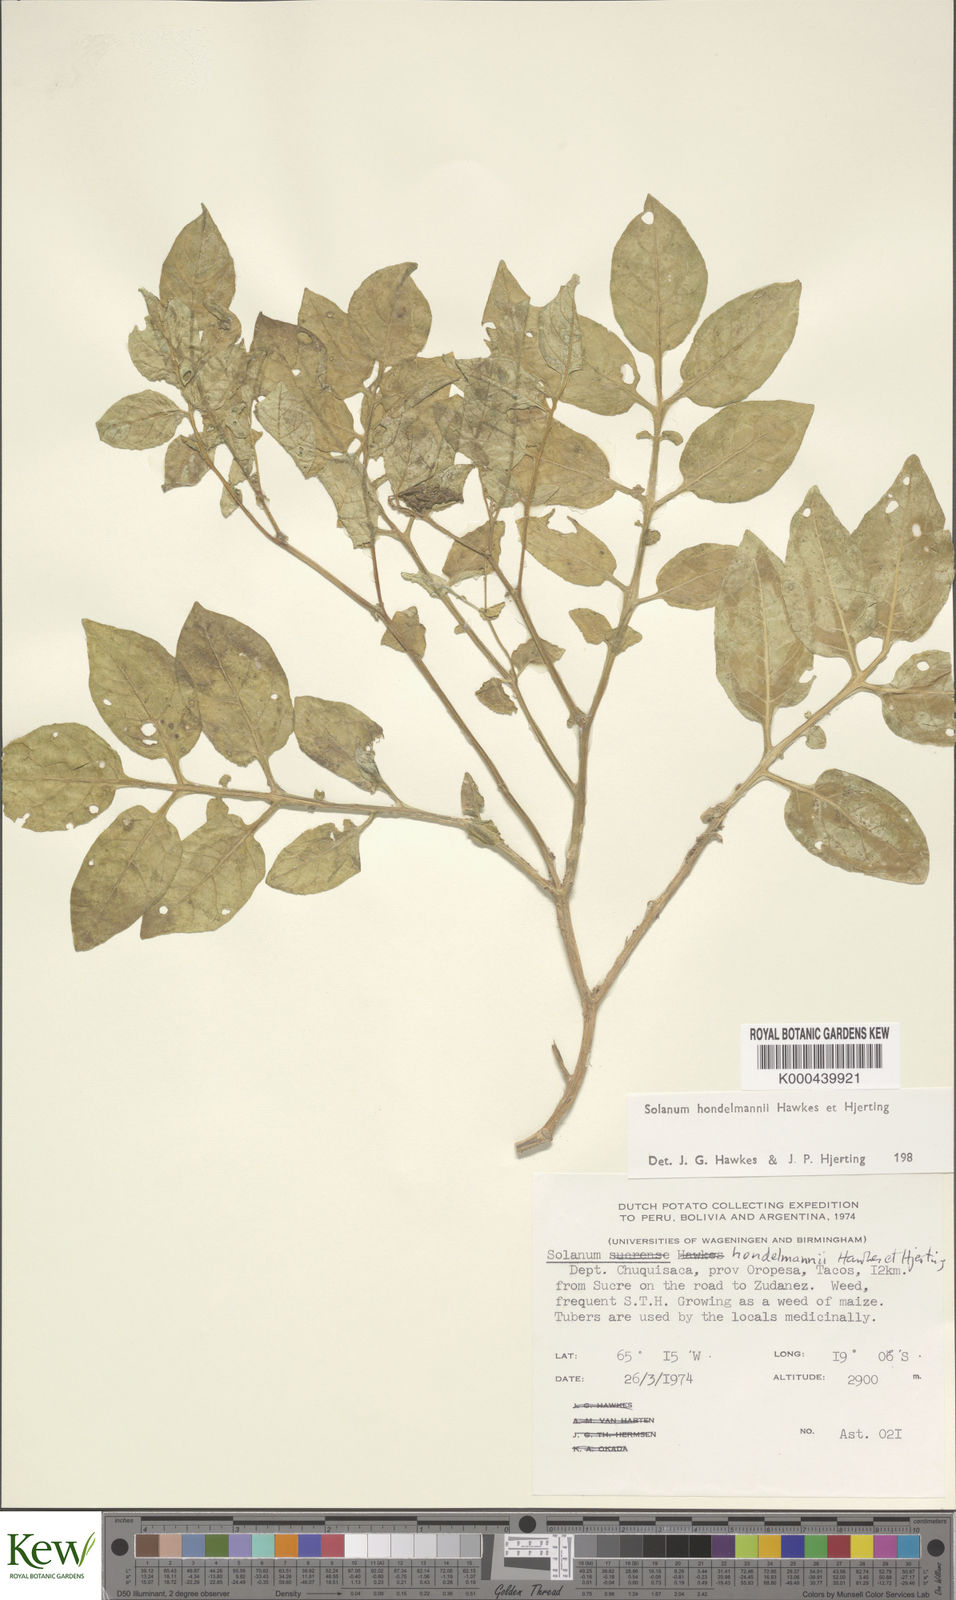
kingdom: Plantae
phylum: Tracheophyta
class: Magnoliopsida
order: Solanales
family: Solanaceae
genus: Solanum
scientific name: Solanum brevicaule
